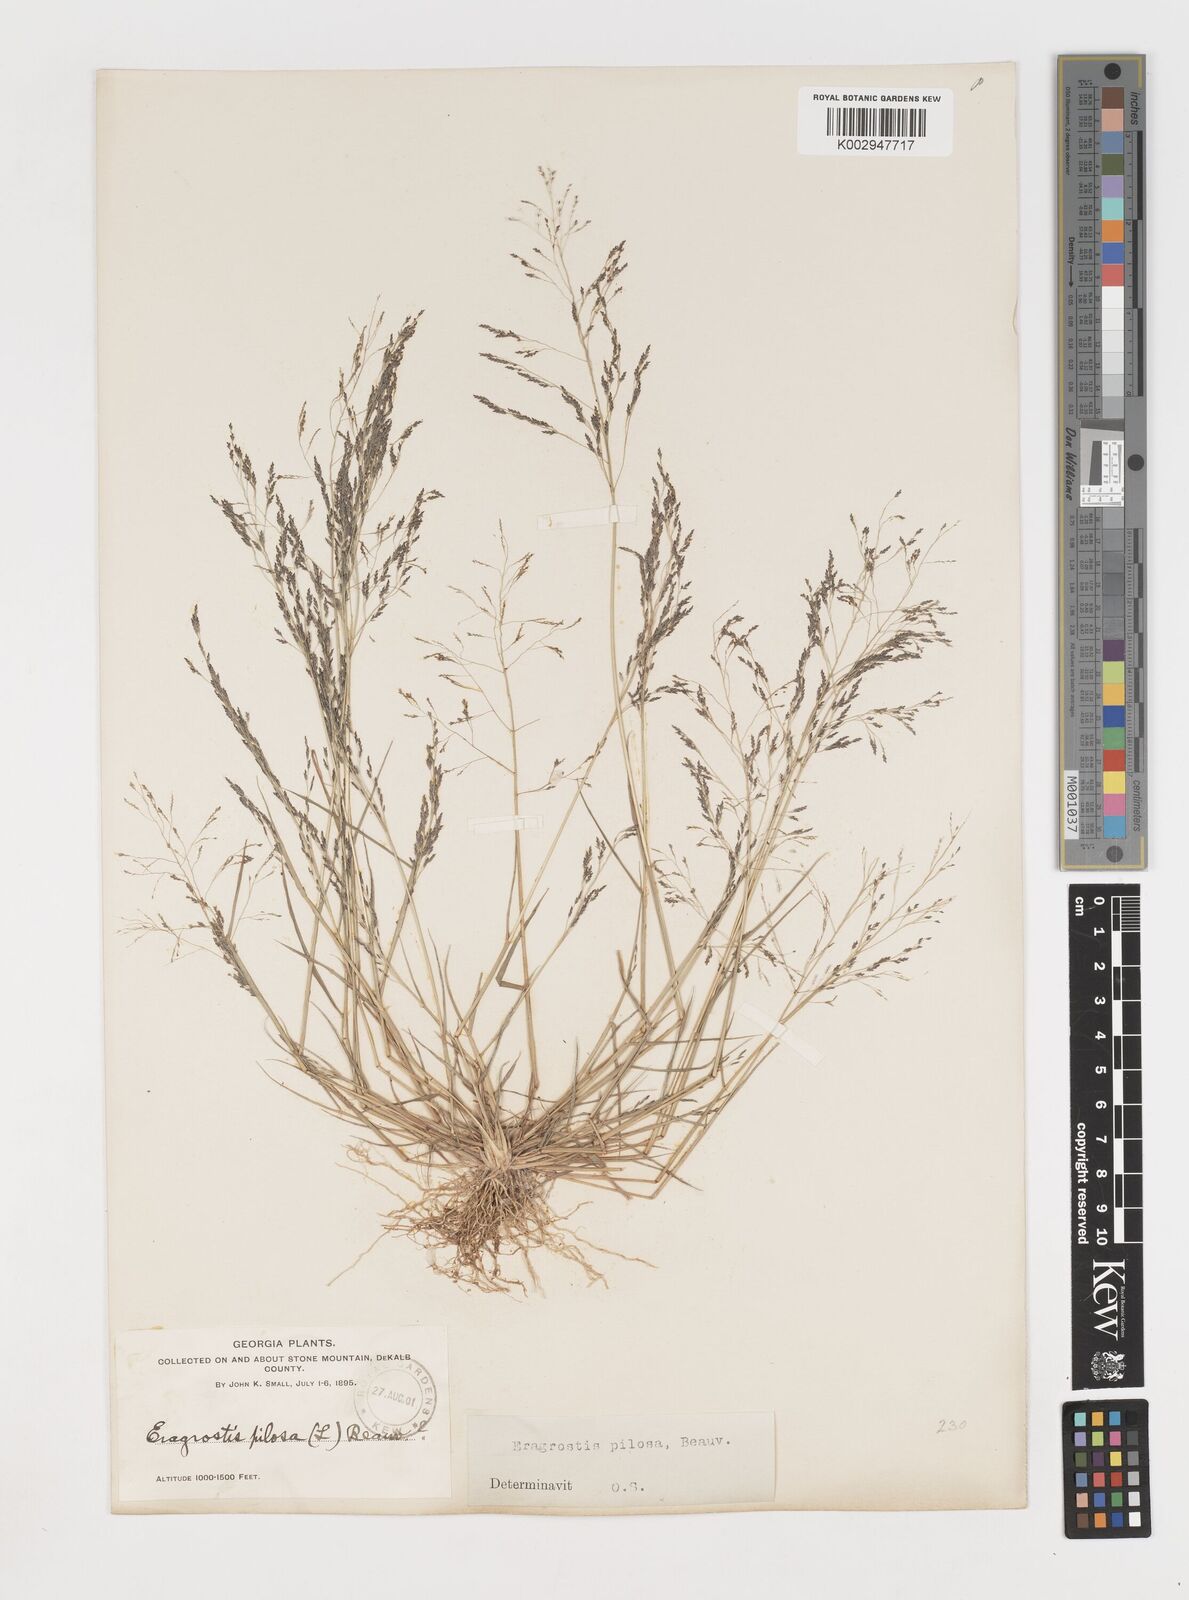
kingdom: Plantae
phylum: Tracheophyta
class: Liliopsida
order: Poales
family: Poaceae
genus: Eragrostis
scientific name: Eragrostis pilosa
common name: Indian lovegrass
